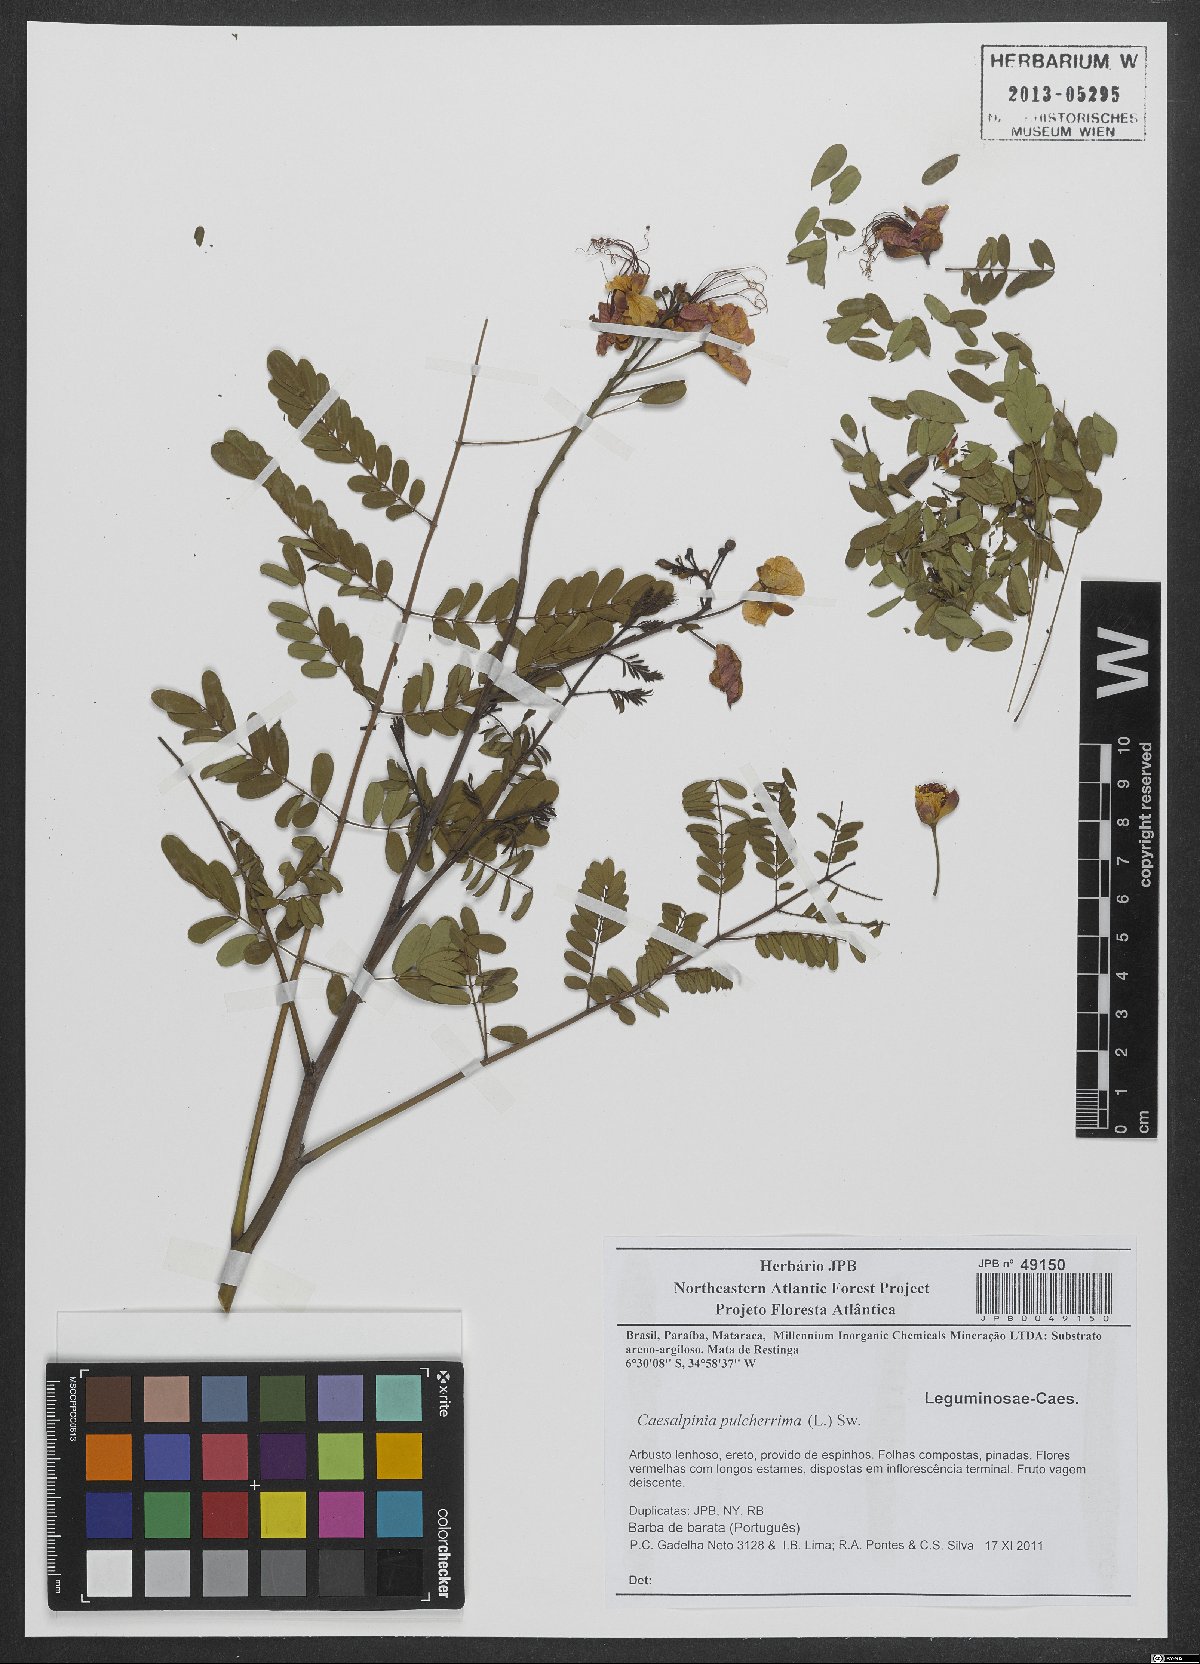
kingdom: Plantae
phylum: Tracheophyta
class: Magnoliopsida
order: Fabales
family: Fabaceae
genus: Caesalpinia
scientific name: Caesalpinia pulcherrima
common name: Pride-of-barbados
